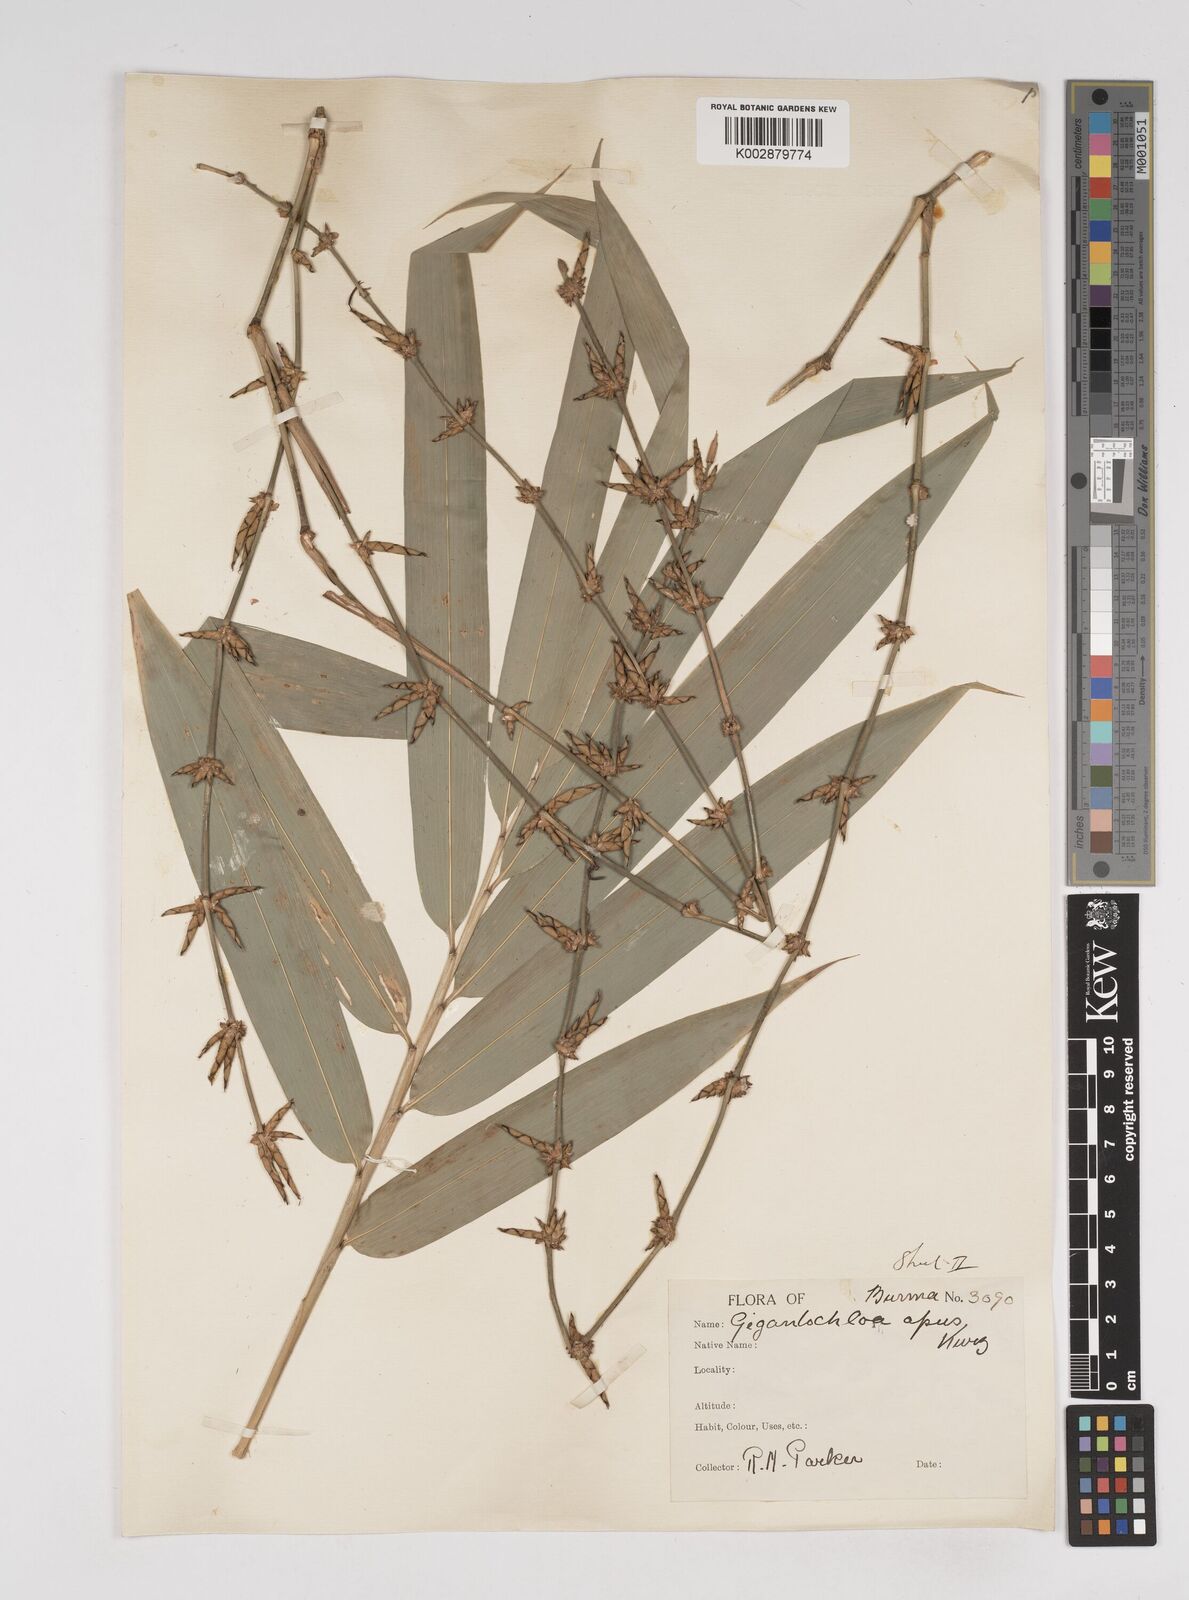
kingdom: Plantae
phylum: Tracheophyta
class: Liliopsida
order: Poales
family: Poaceae
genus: Gigantochloa
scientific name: Gigantochloa compressa
